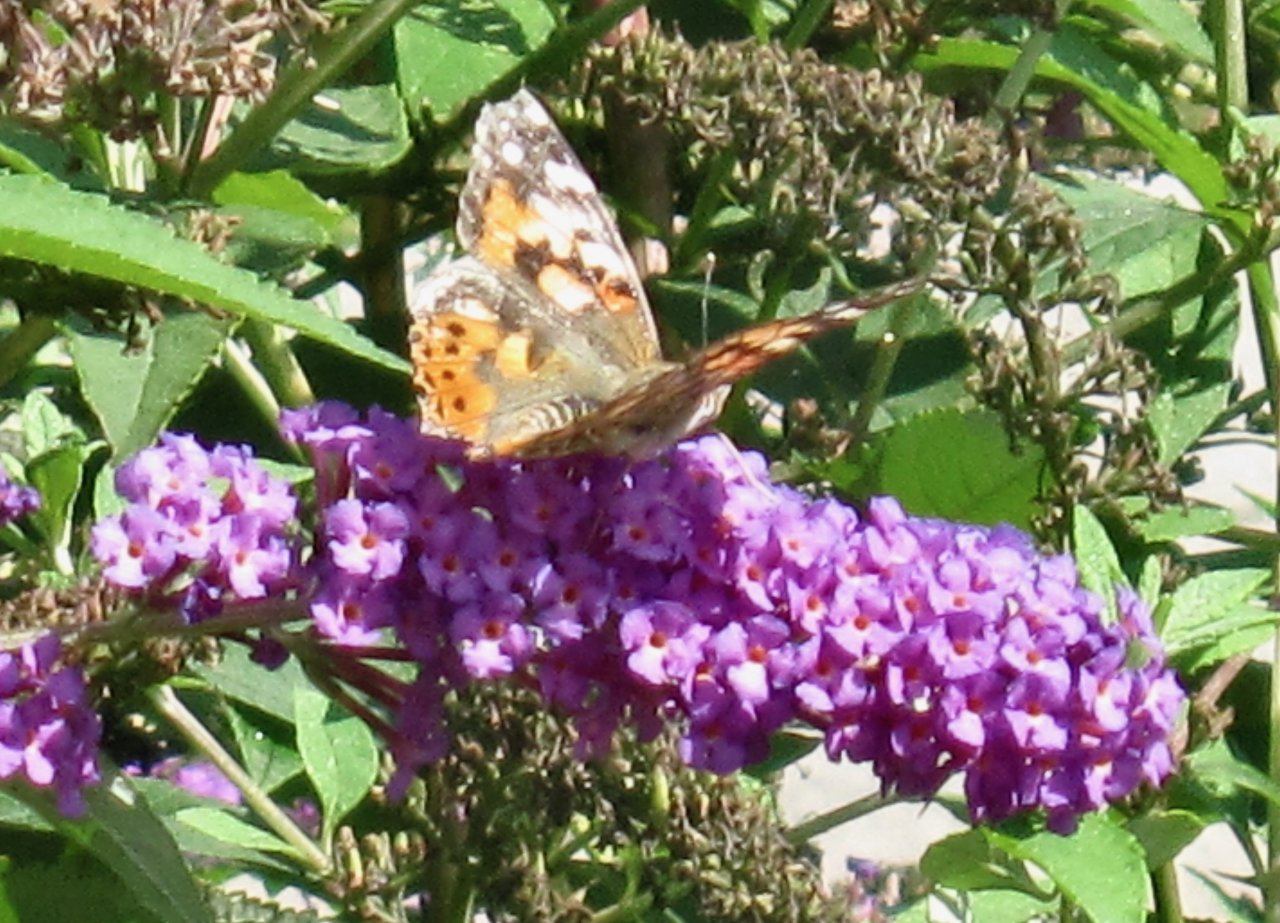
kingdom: Animalia
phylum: Arthropoda
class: Insecta
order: Lepidoptera
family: Nymphalidae
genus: Vanessa
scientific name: Vanessa cardui
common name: Painted Lady
